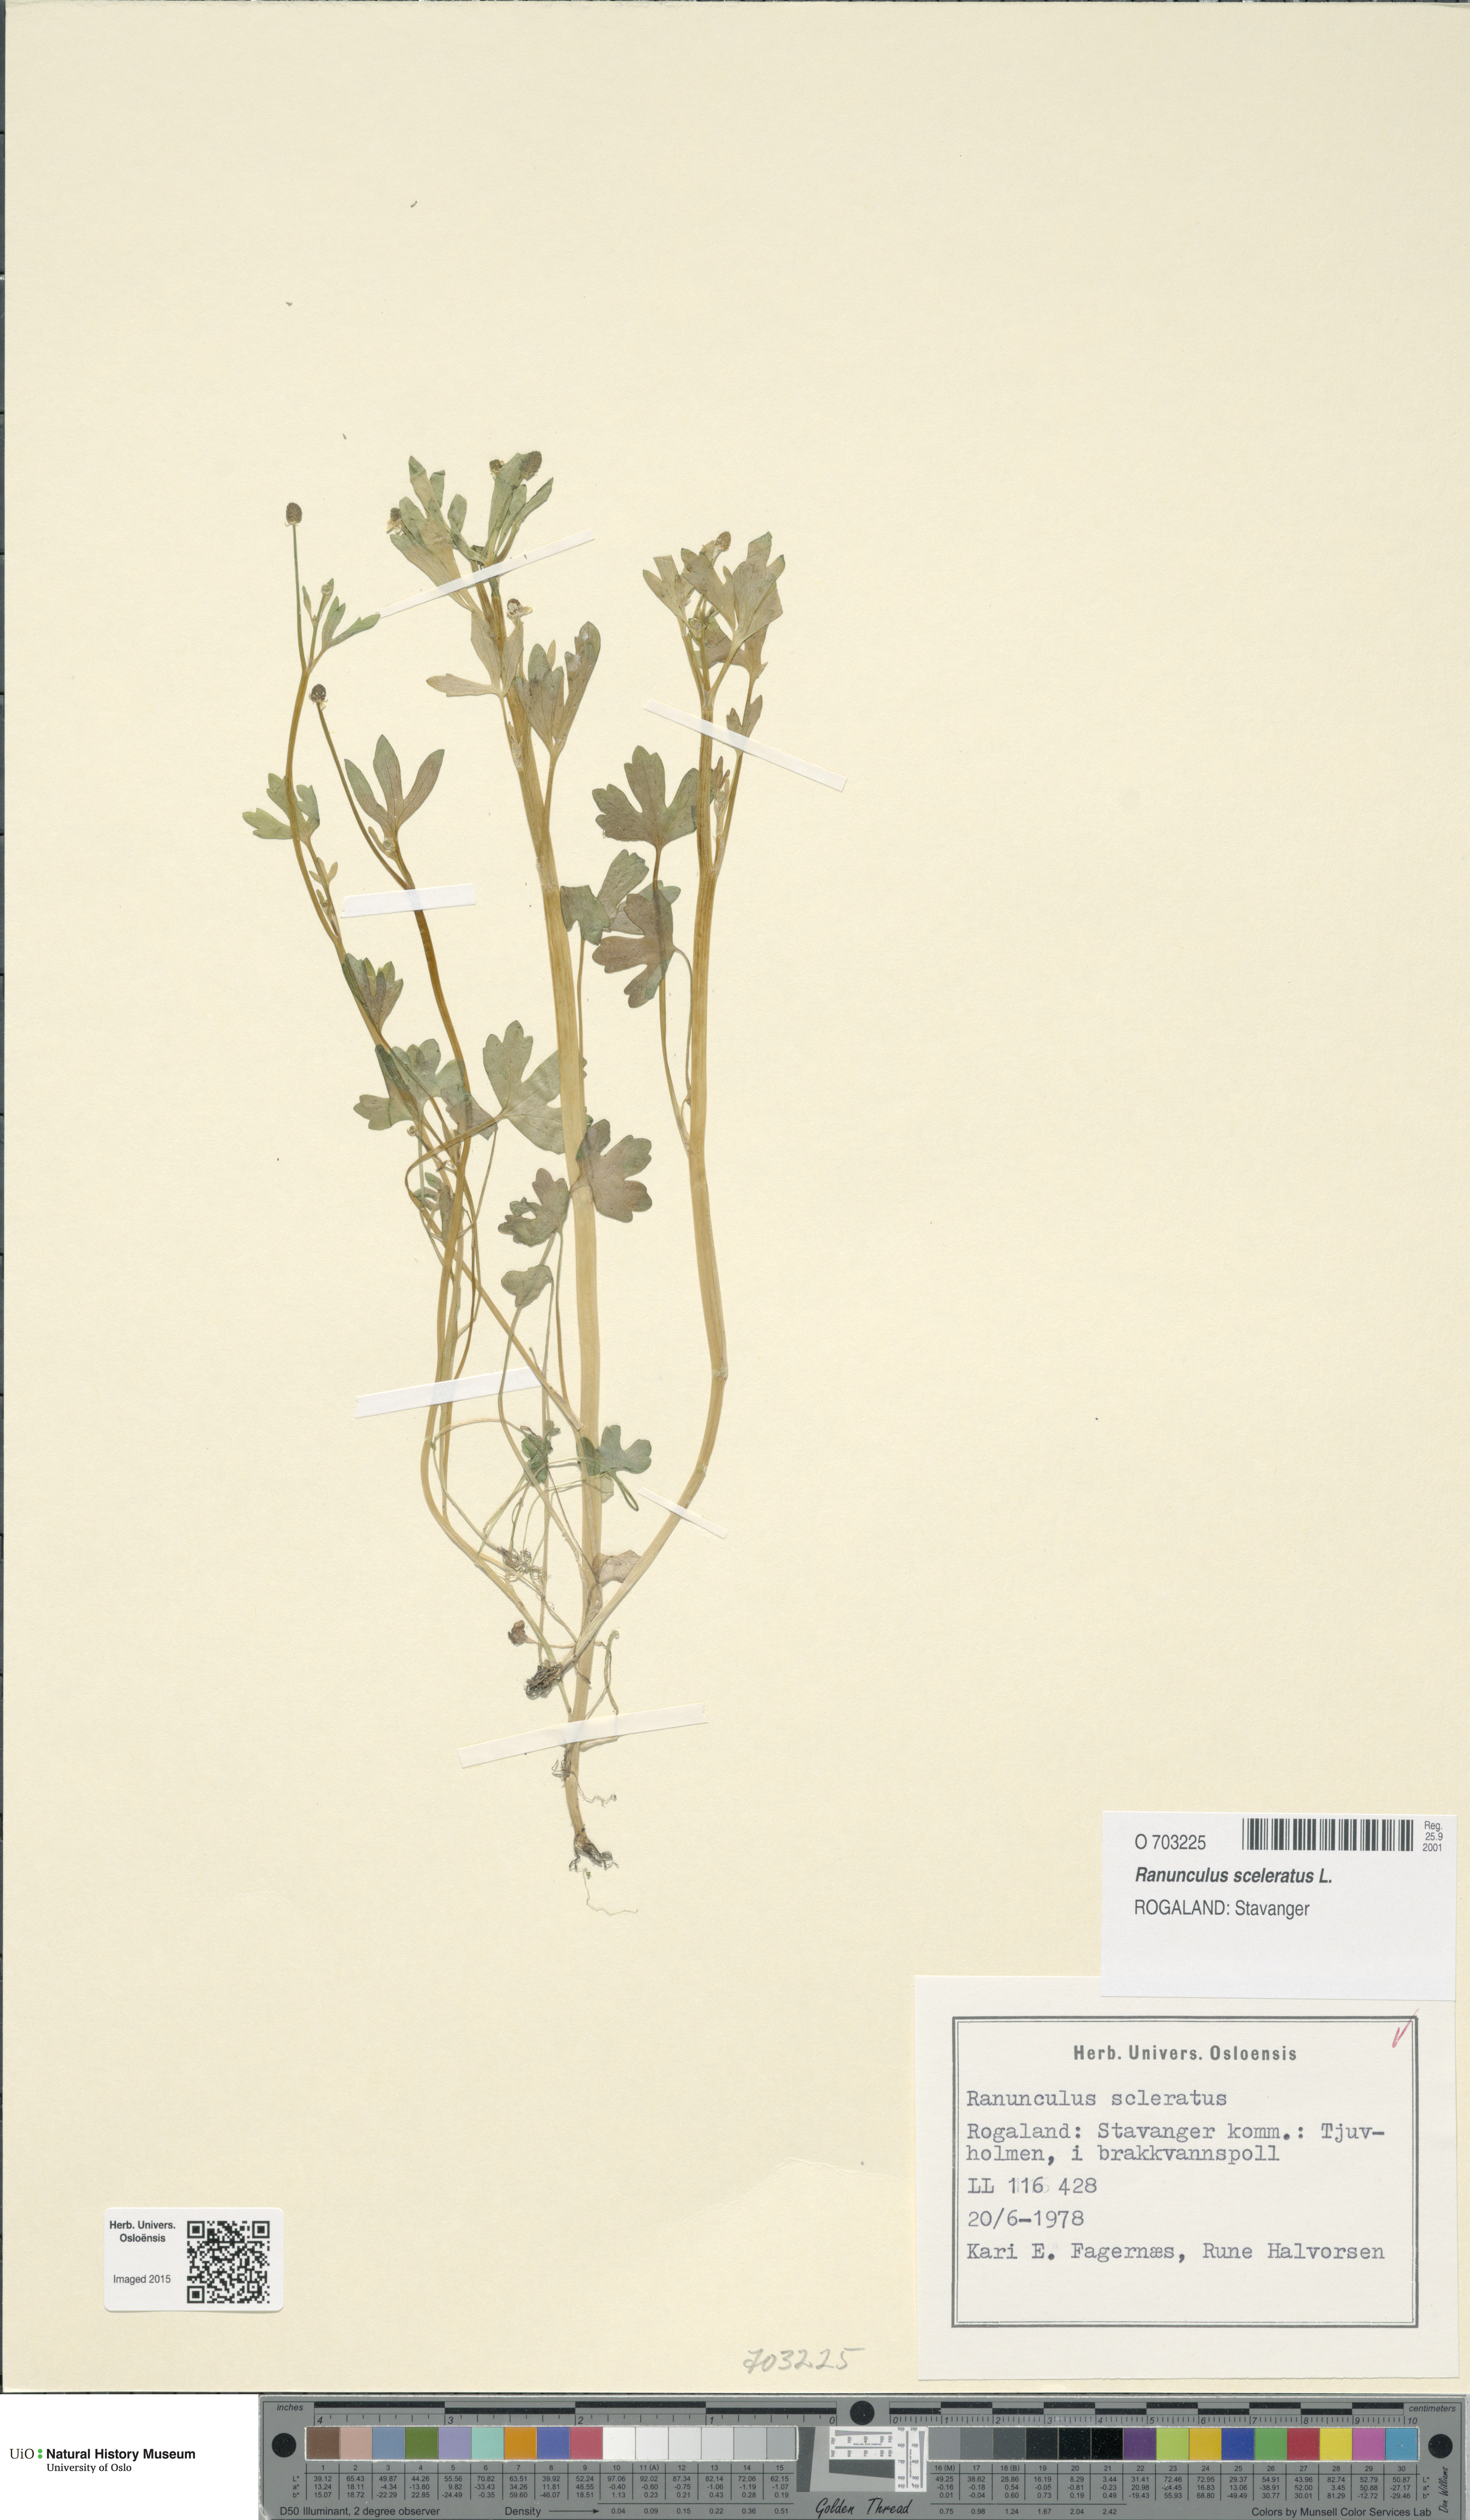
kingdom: Plantae
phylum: Tracheophyta
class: Magnoliopsida
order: Ranunculales
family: Ranunculaceae
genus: Ranunculus
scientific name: Ranunculus sceleratus
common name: Celery-leaved buttercup
